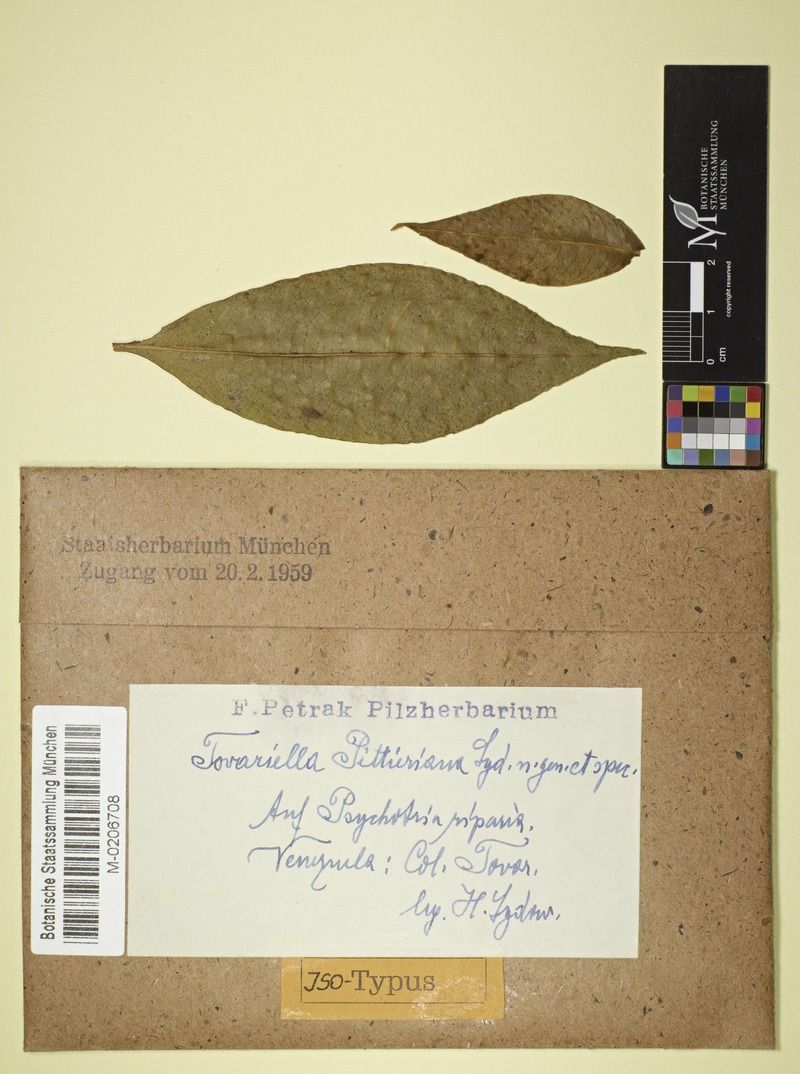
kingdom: Fungi
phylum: Ascomycota
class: Leotiomycetes
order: Helotiales
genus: Tovariella
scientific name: Tovariella pittieriana
